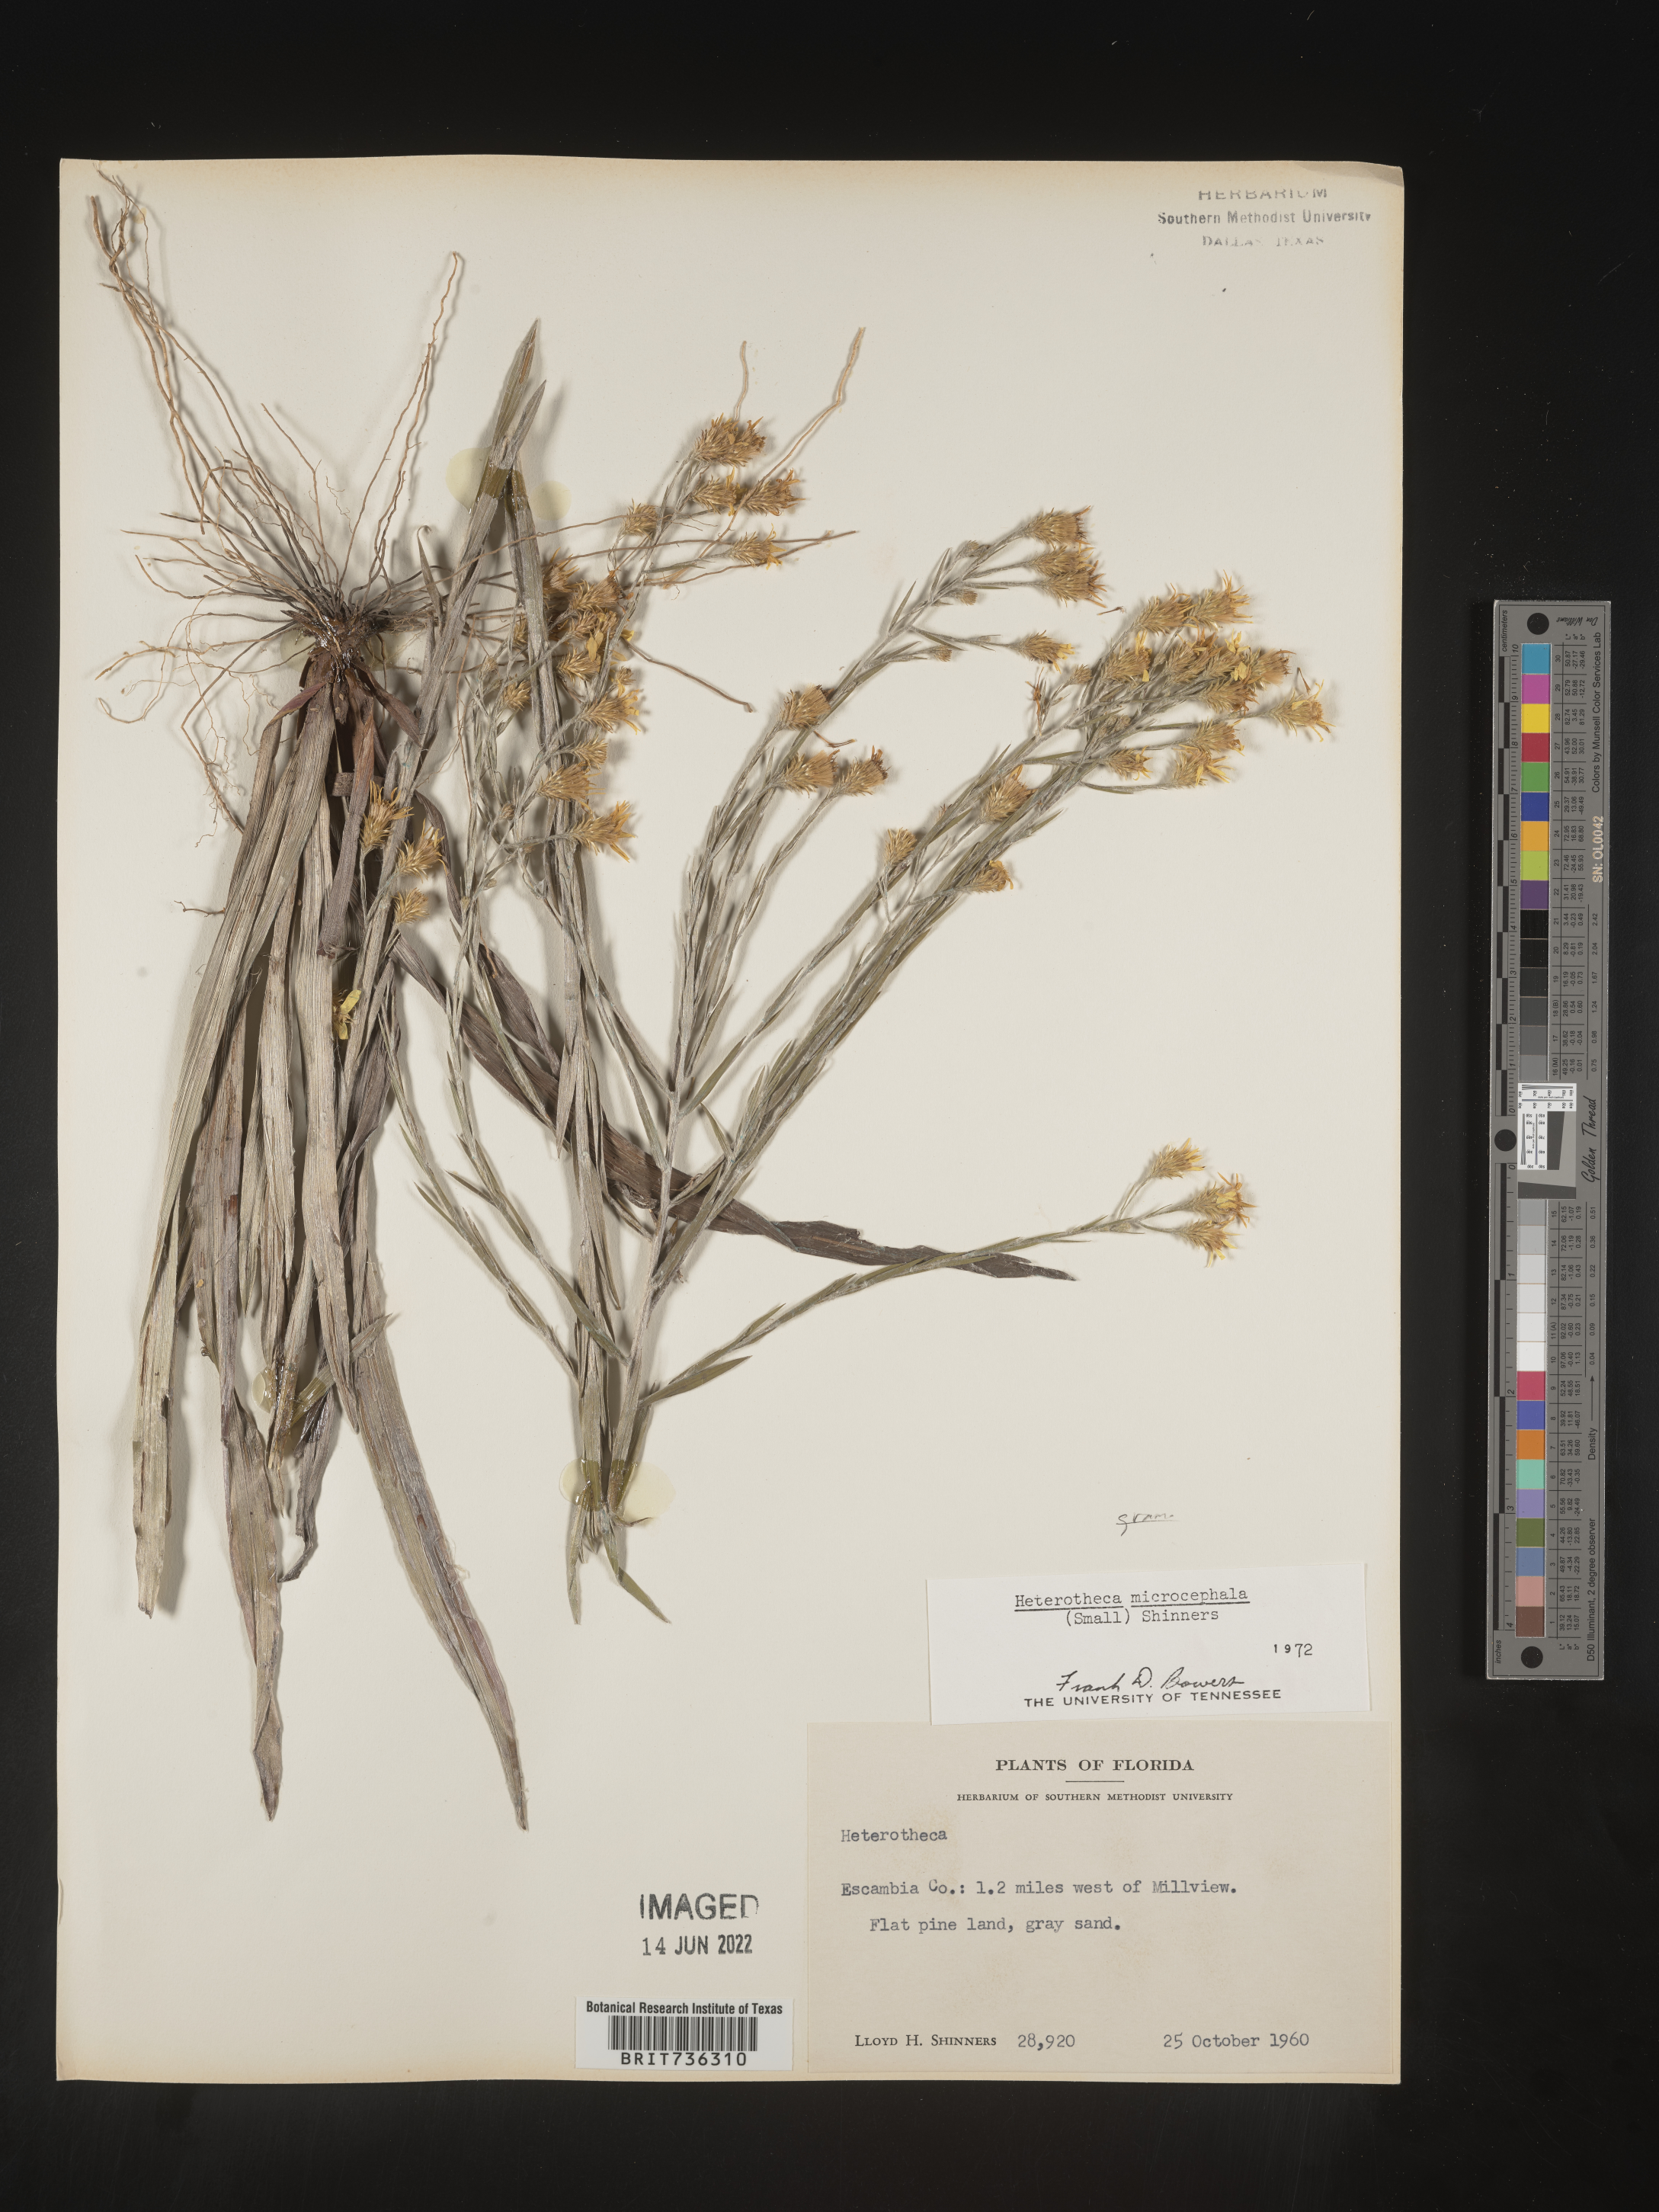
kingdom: Plantae
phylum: Tracheophyta
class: Magnoliopsida
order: Asterales
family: Asteraceae
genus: Pityopsis
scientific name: Pityopsis microcephala
